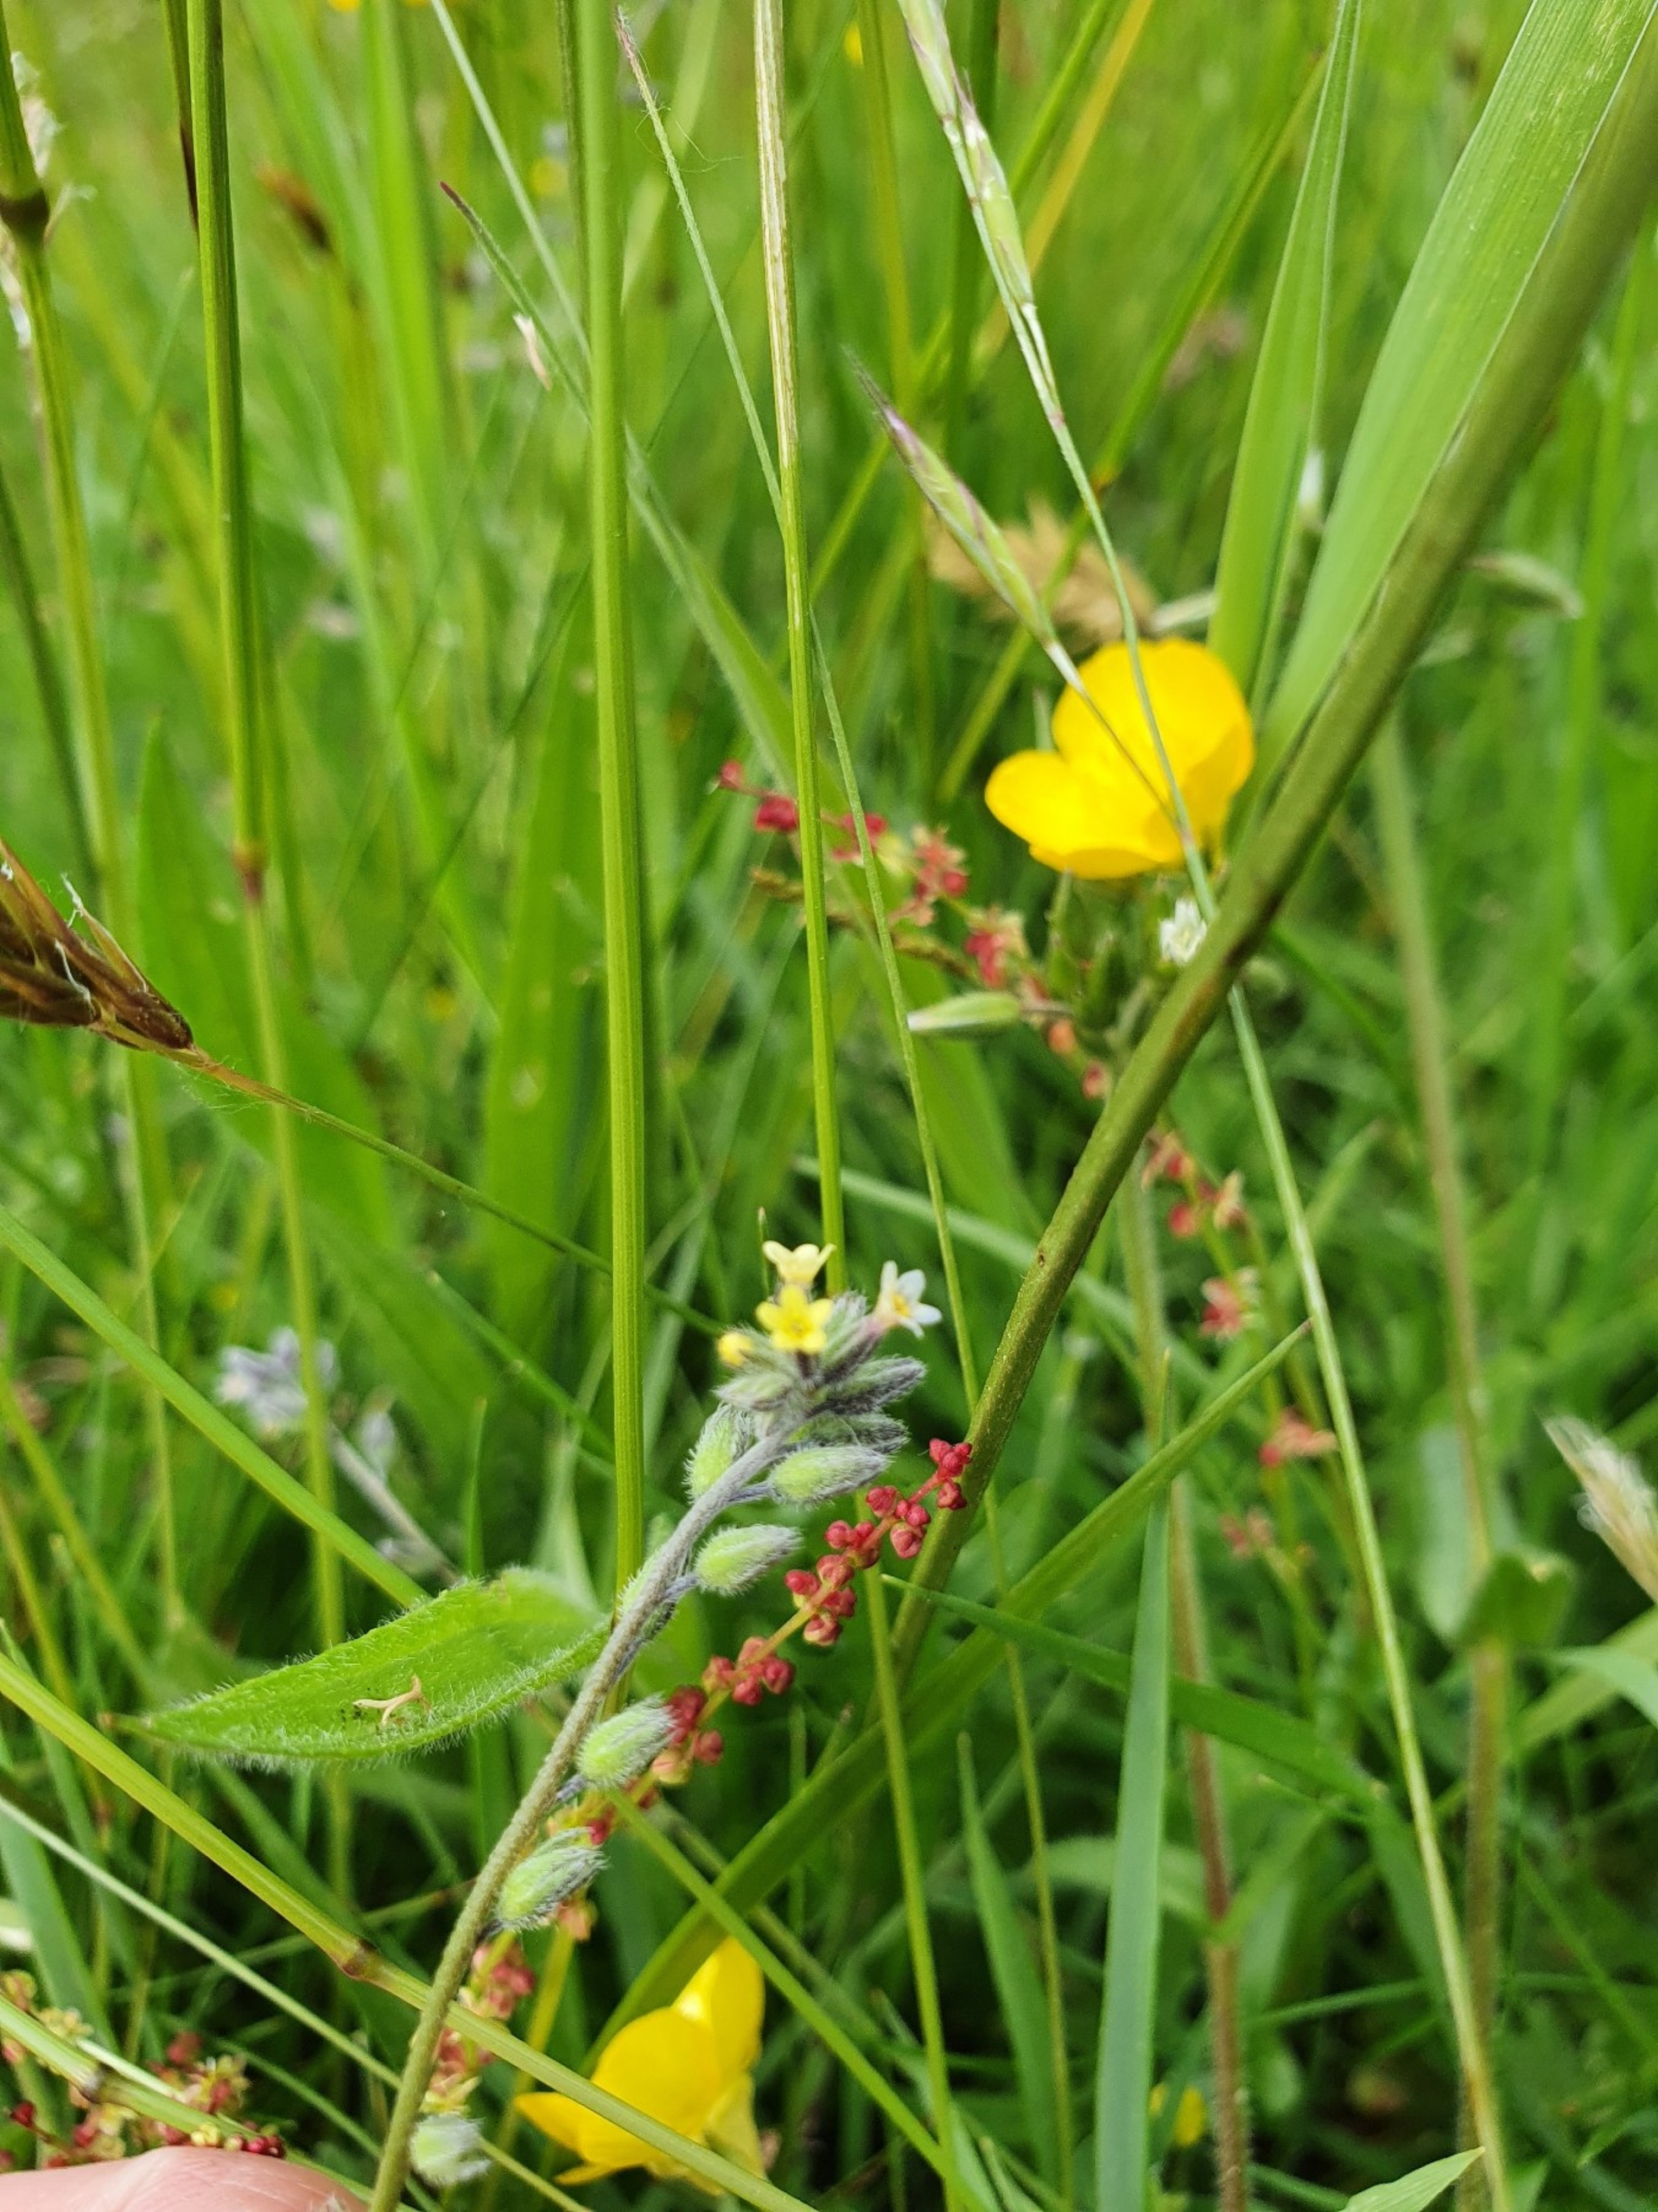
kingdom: Plantae
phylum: Tracheophyta
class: Magnoliopsida
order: Boraginales
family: Boraginaceae
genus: Myosotis
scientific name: Myosotis discolor
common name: Forskelligfarvet forglemmigej
